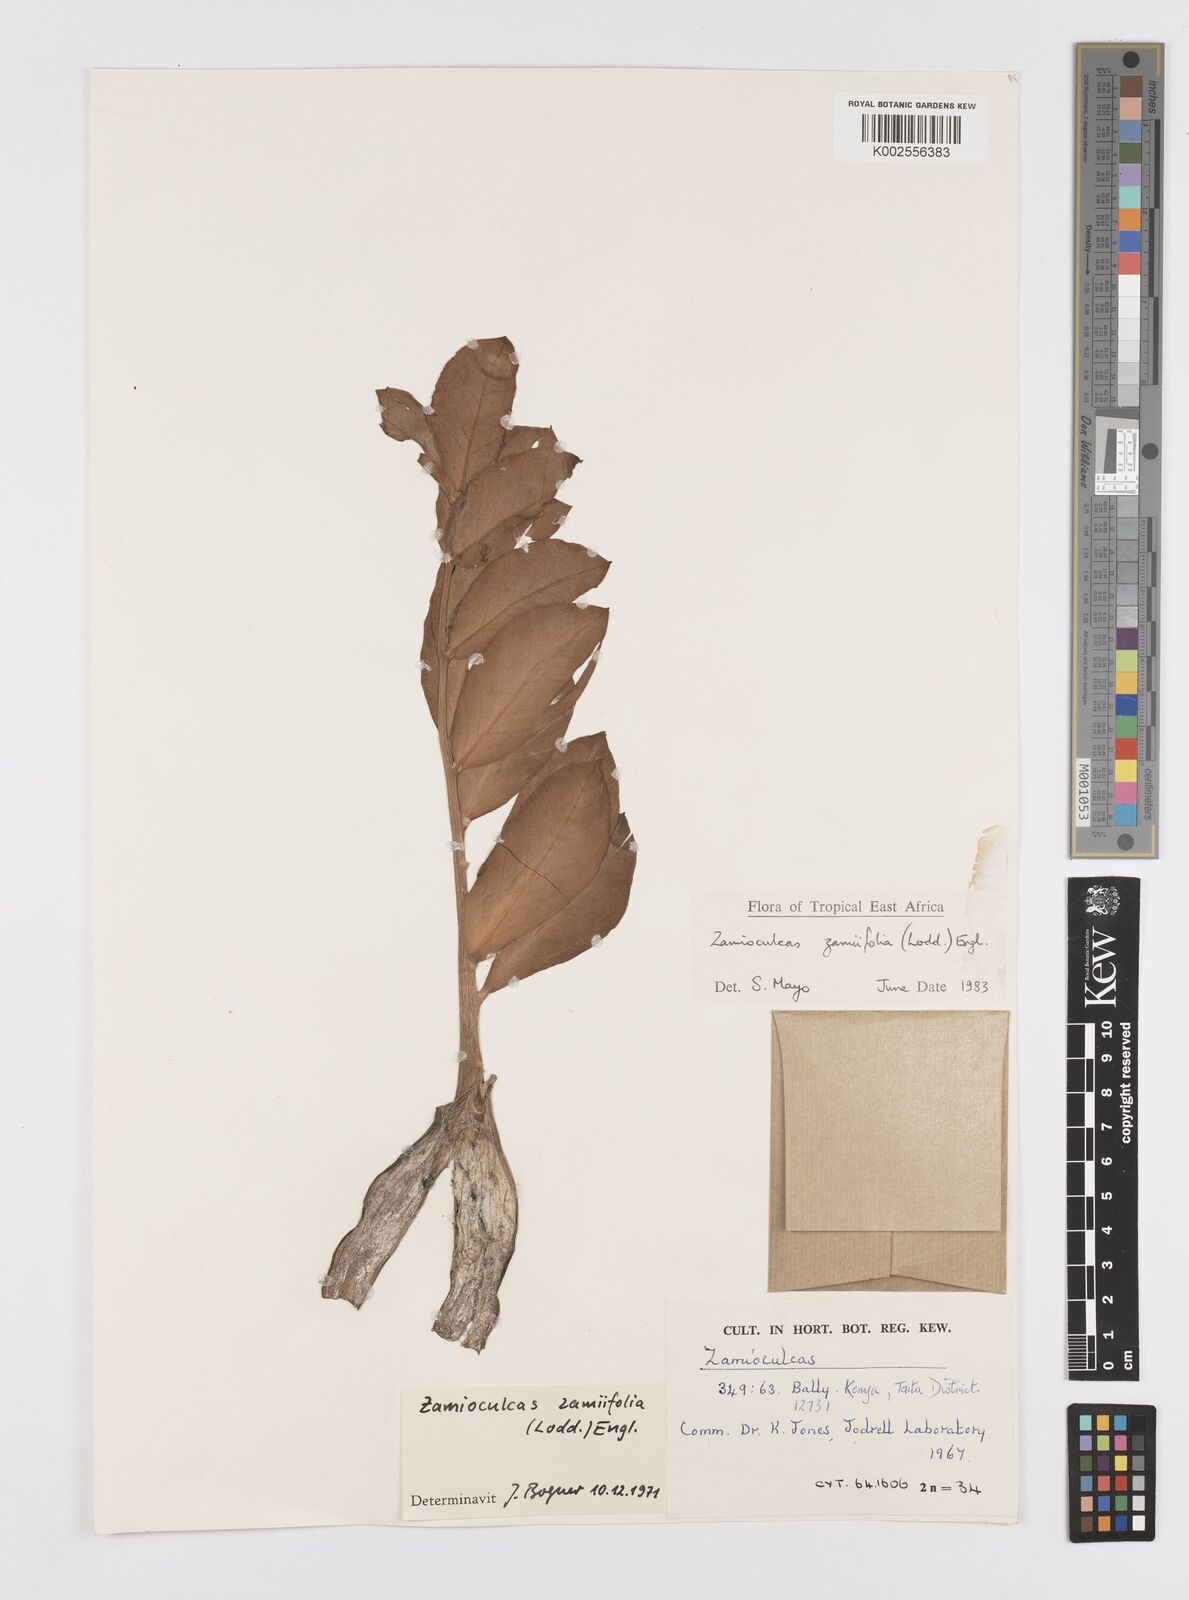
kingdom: Plantae
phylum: Tracheophyta
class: Liliopsida
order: Alismatales
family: Araceae
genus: Zamioculcas
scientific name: Zamioculcas zamiifolia
